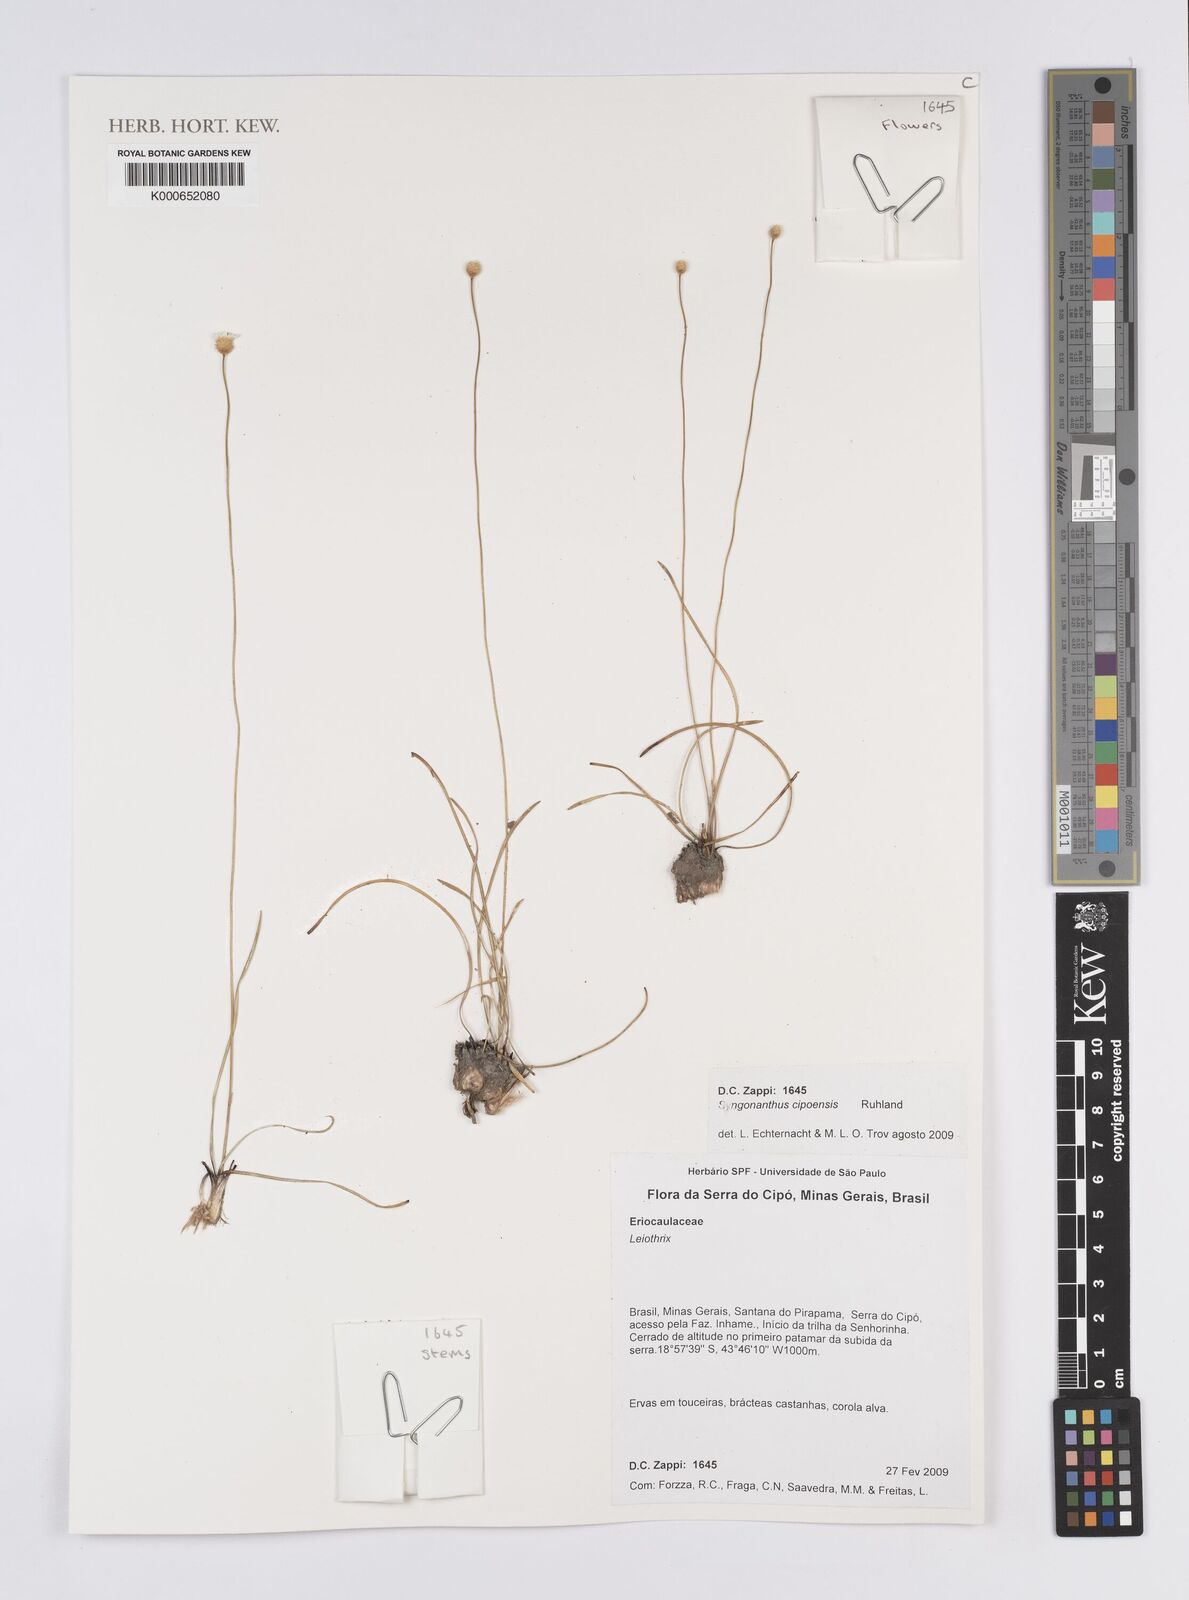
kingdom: Plantae
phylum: Tracheophyta
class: Liliopsida
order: Poales
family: Eriocaulaceae
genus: Comanthera
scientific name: Comanthera cipoensis
